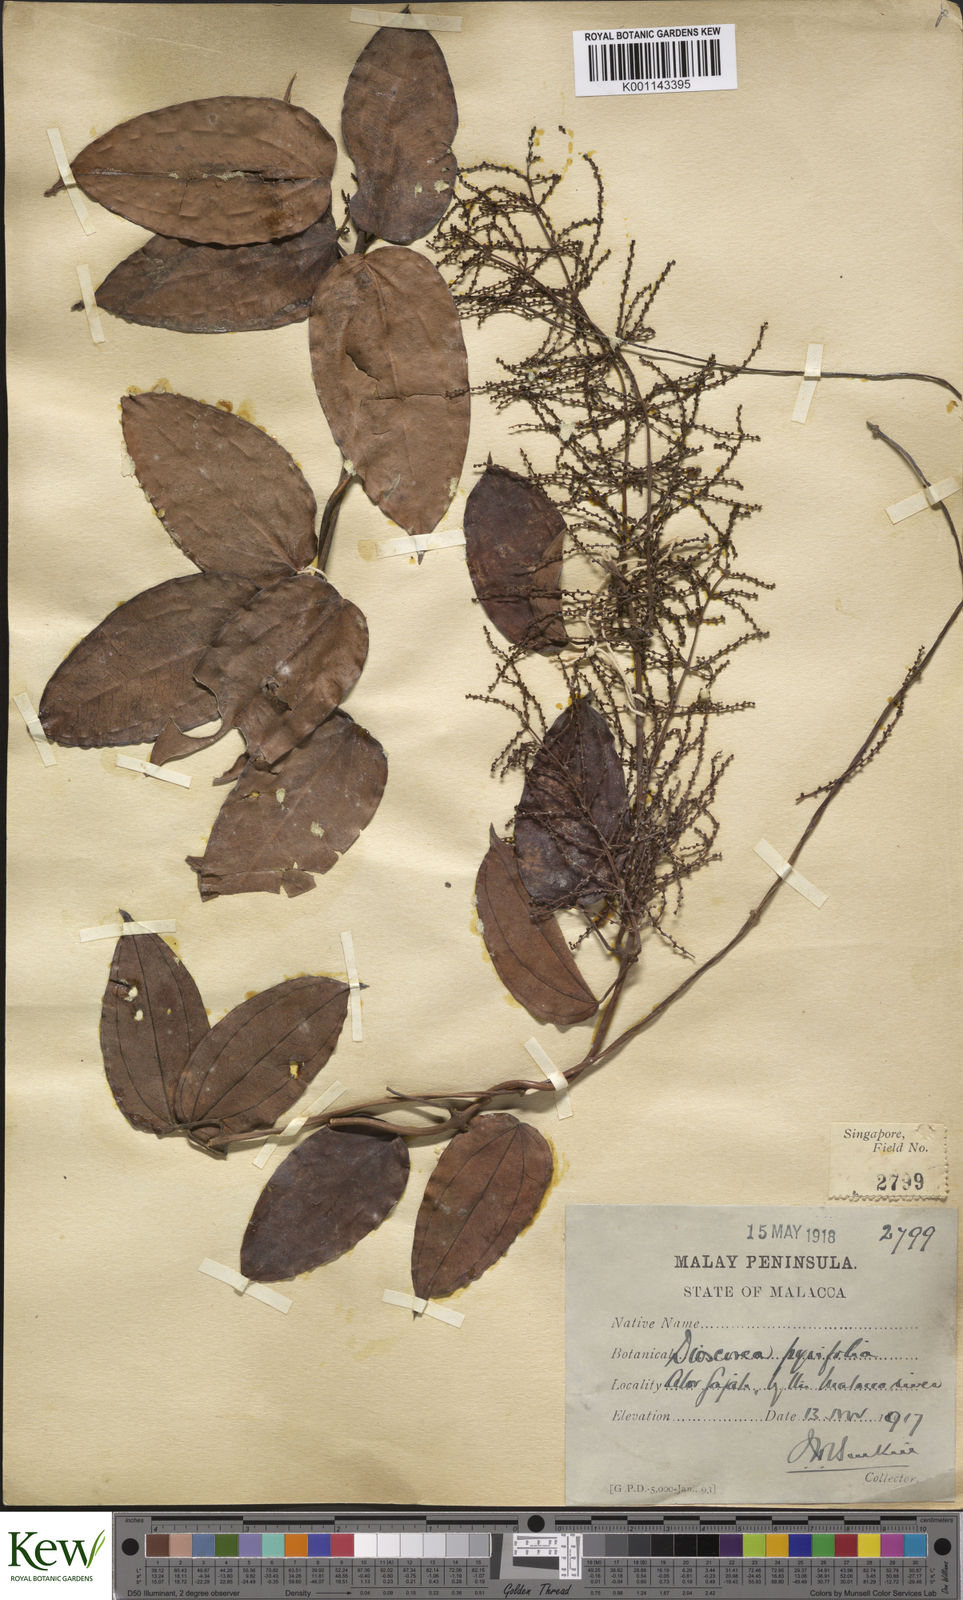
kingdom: Plantae
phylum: Tracheophyta
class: Liliopsida
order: Dioscoreales
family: Dioscoreaceae
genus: Dioscorea
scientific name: Dioscorea pyrifolia
